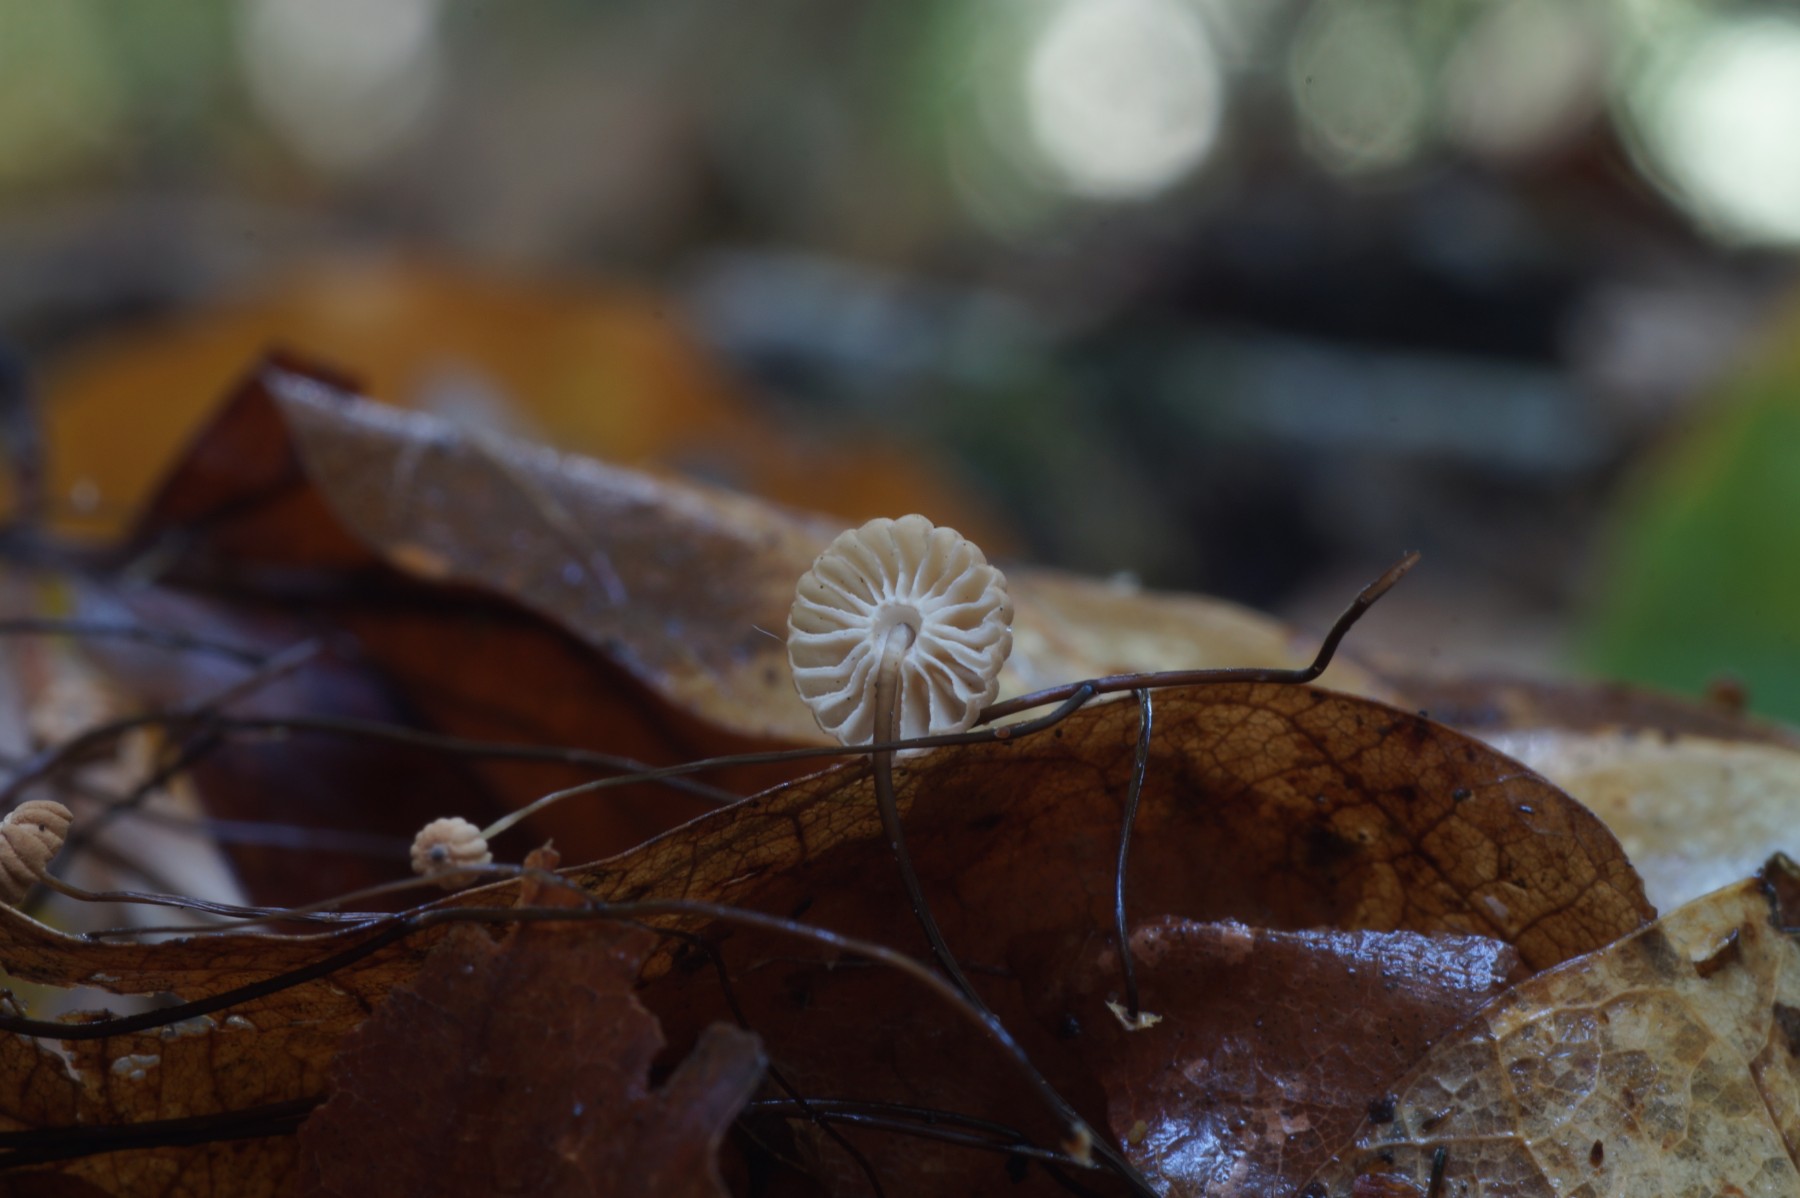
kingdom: Fungi
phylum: Basidiomycota
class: Agaricomycetes
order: Agaricales
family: Marasmiaceae
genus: Marasmius
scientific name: Marasmius bulliardii
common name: furet bruskhat
